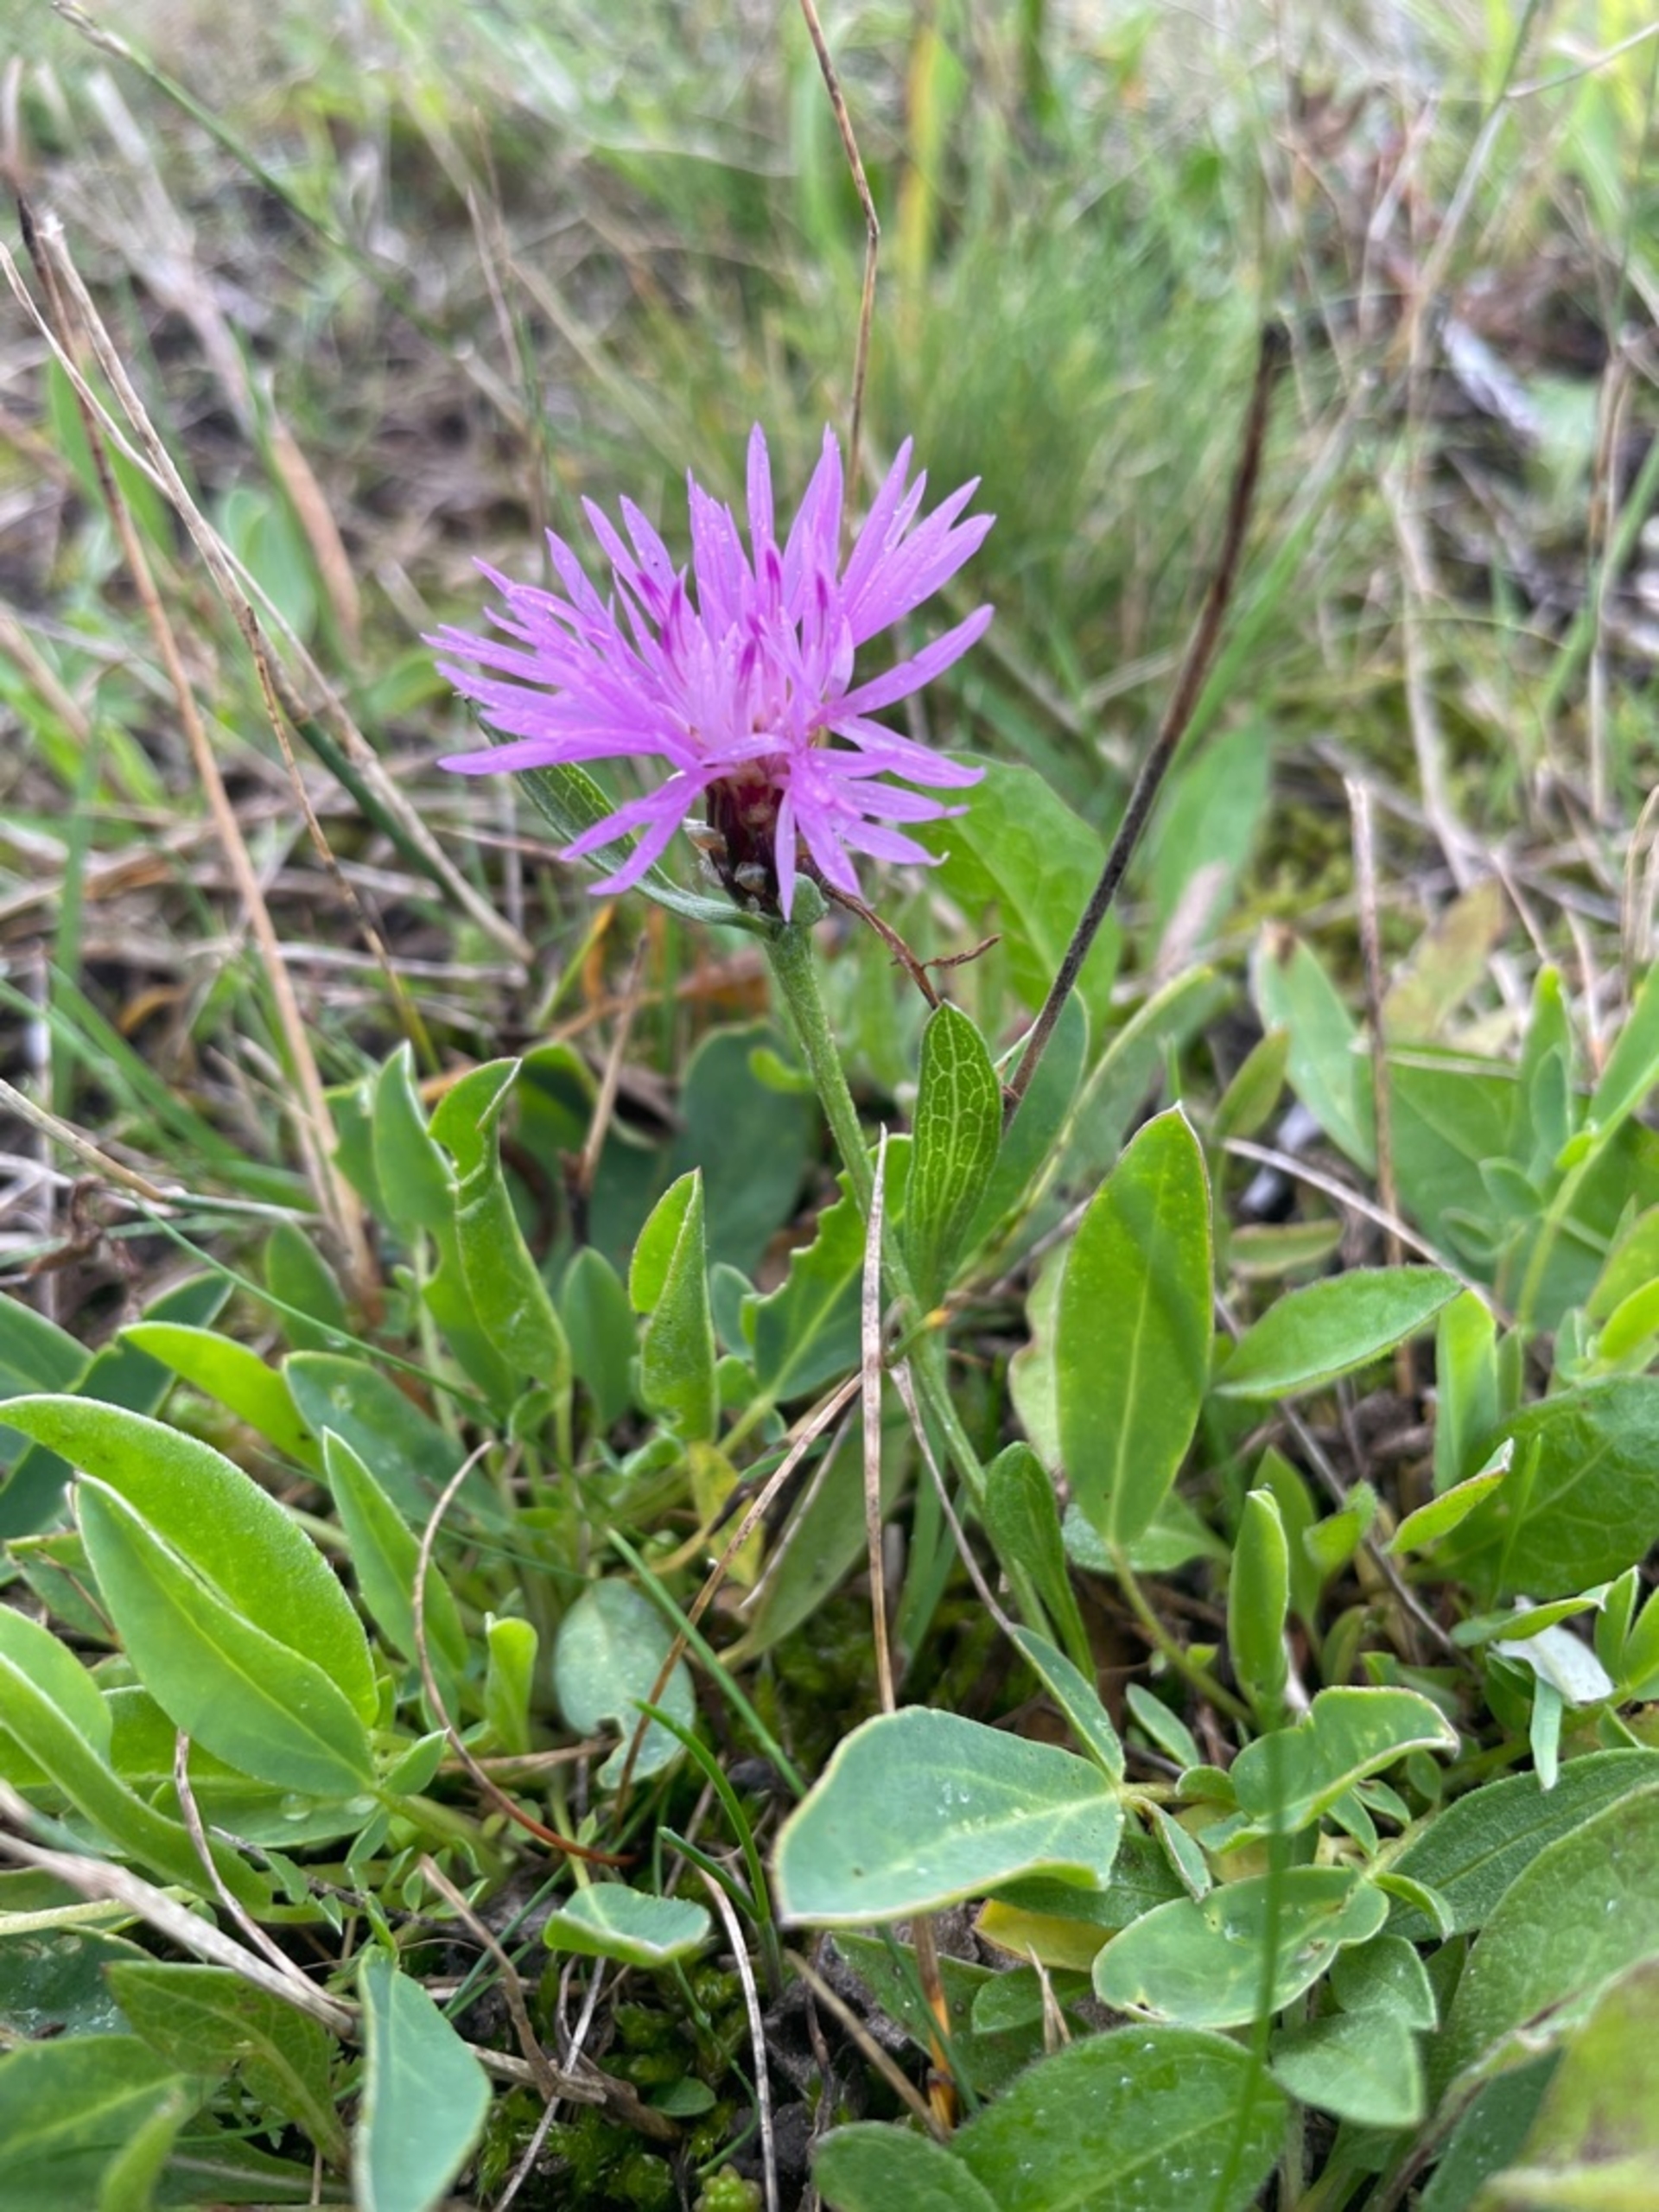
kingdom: Plantae
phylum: Tracheophyta
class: Magnoliopsida
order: Asterales
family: Asteraceae
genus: Centaurea
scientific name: Centaurea jacea
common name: Almindelig knopurt
